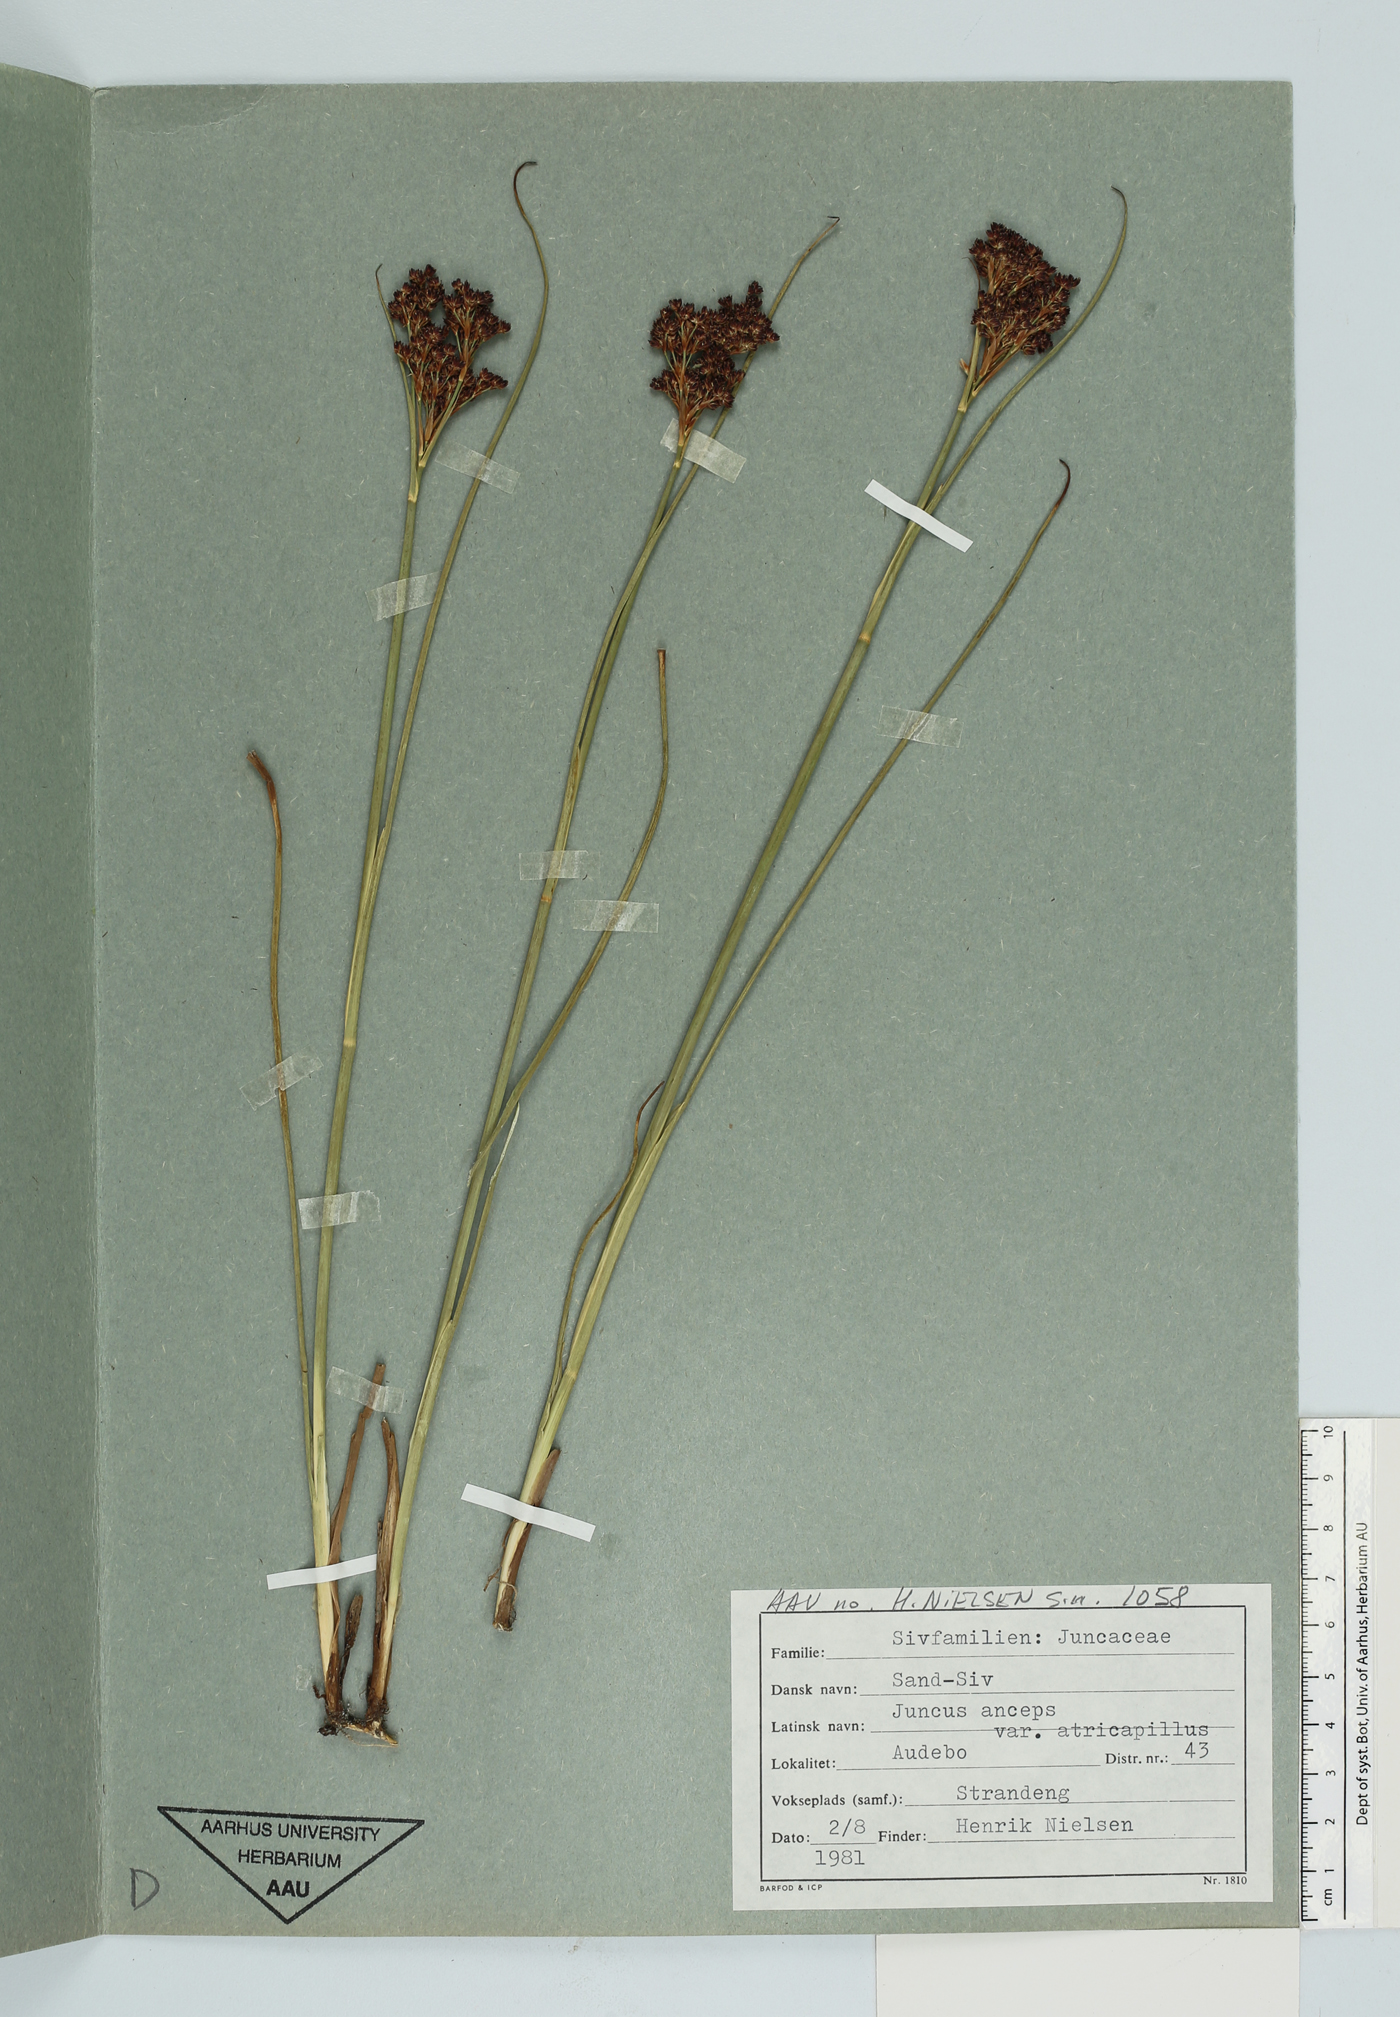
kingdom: Plantae
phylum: Tracheophyta
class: Liliopsida
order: Poales
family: Juncaceae
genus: Juncus
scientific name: Juncus anceps
